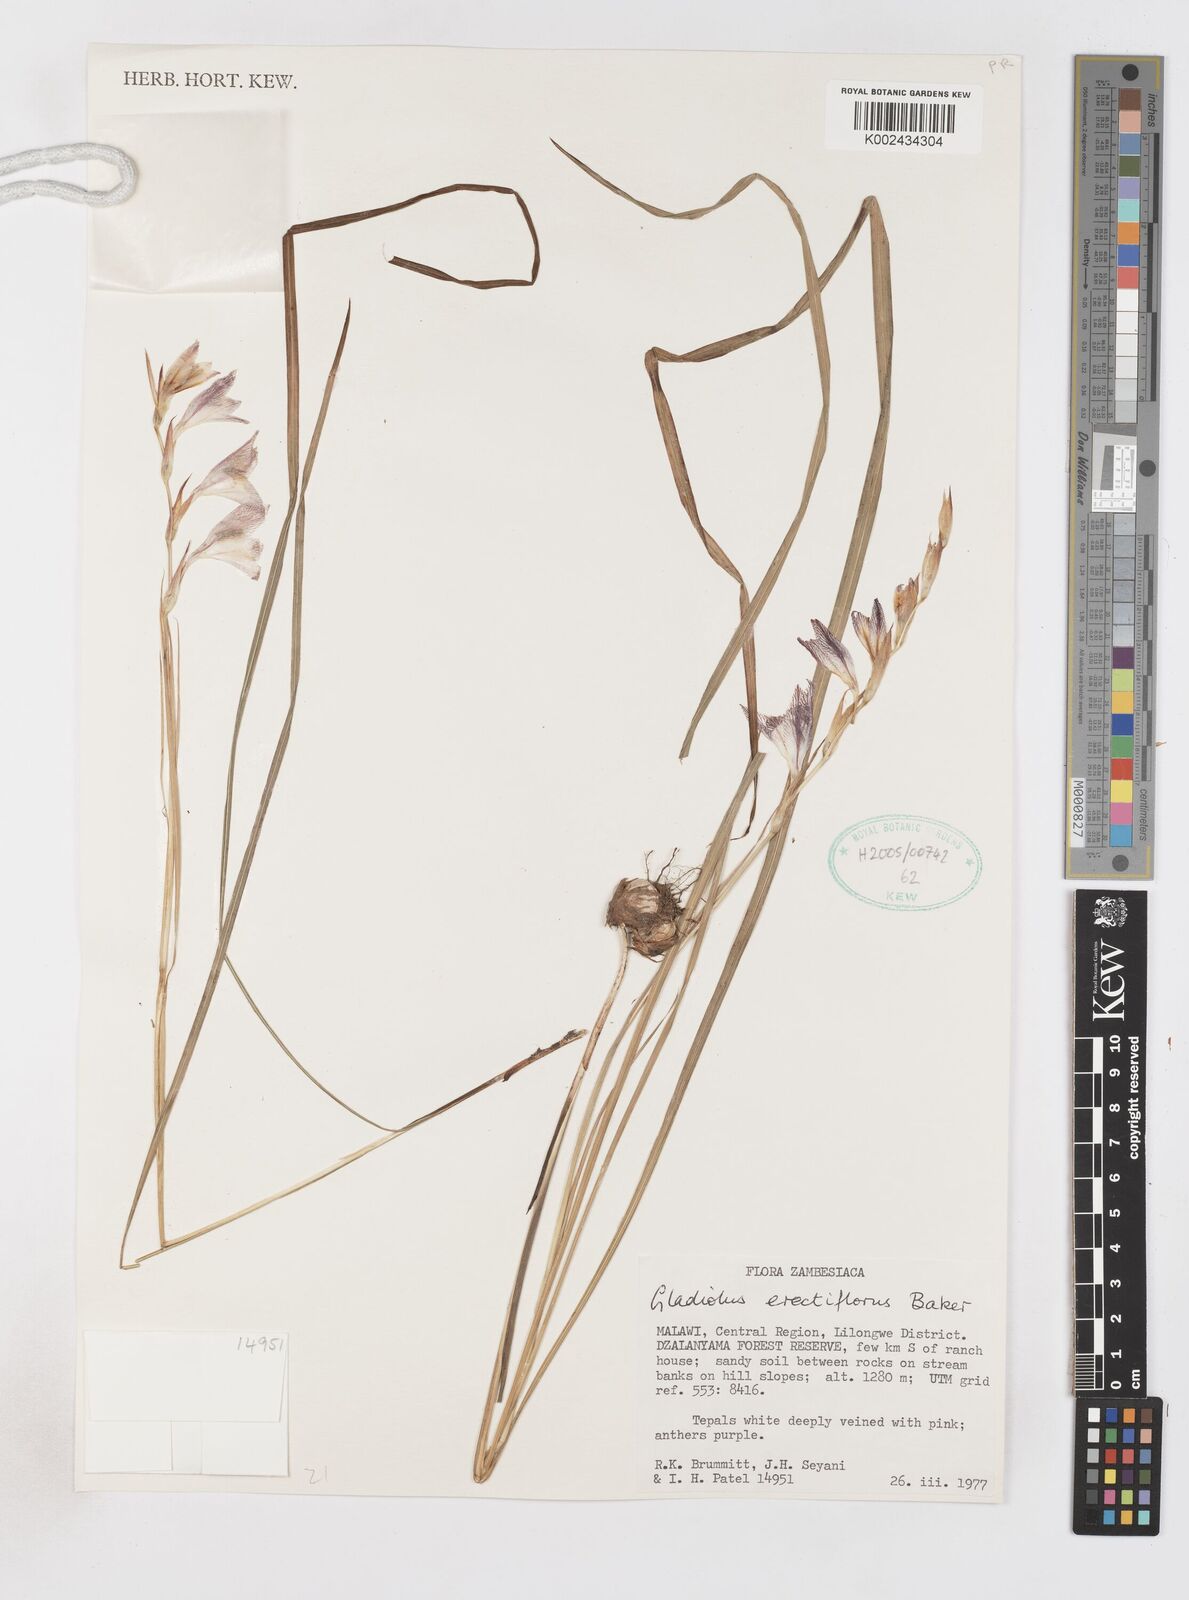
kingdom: Plantae
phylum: Tracheophyta
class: Liliopsida
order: Asparagales
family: Iridaceae
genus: Gladiolus
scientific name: Gladiolus erectiflorus
